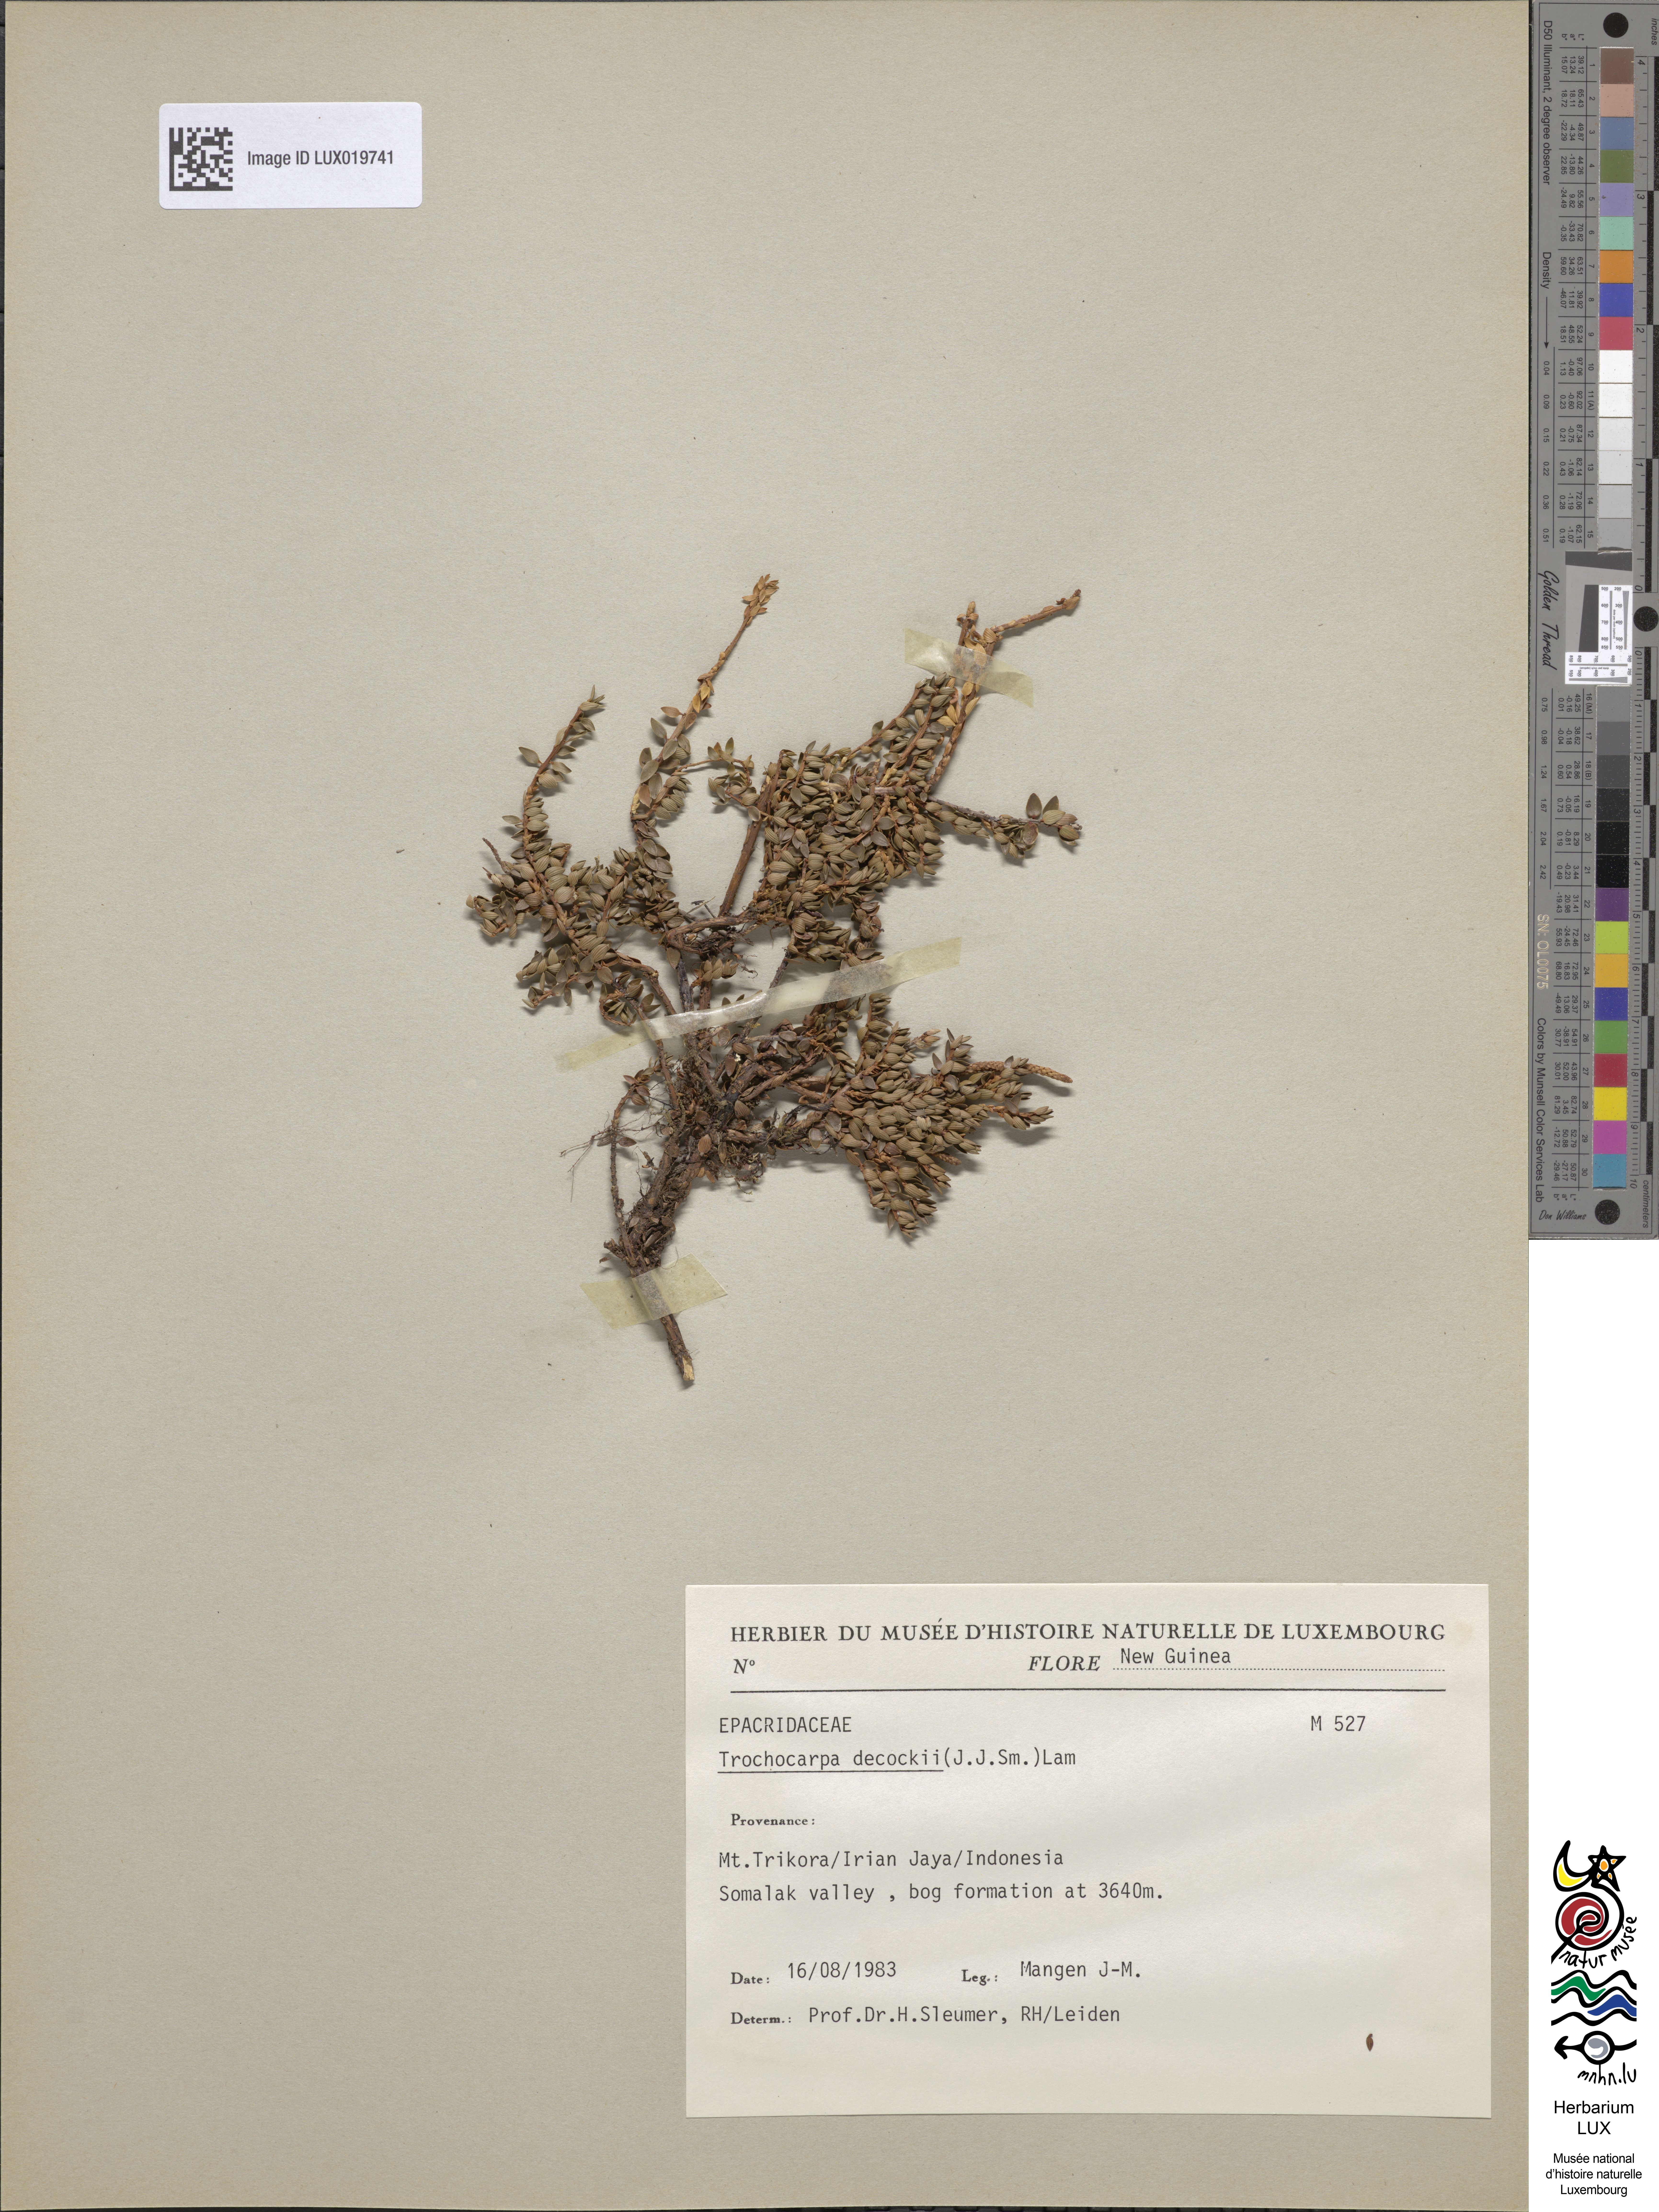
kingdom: Plantae
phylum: Tracheophyta
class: Magnoliopsida
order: Ericales
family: Ericaceae
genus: Trochocarpa
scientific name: Trochocarpa dekockii
